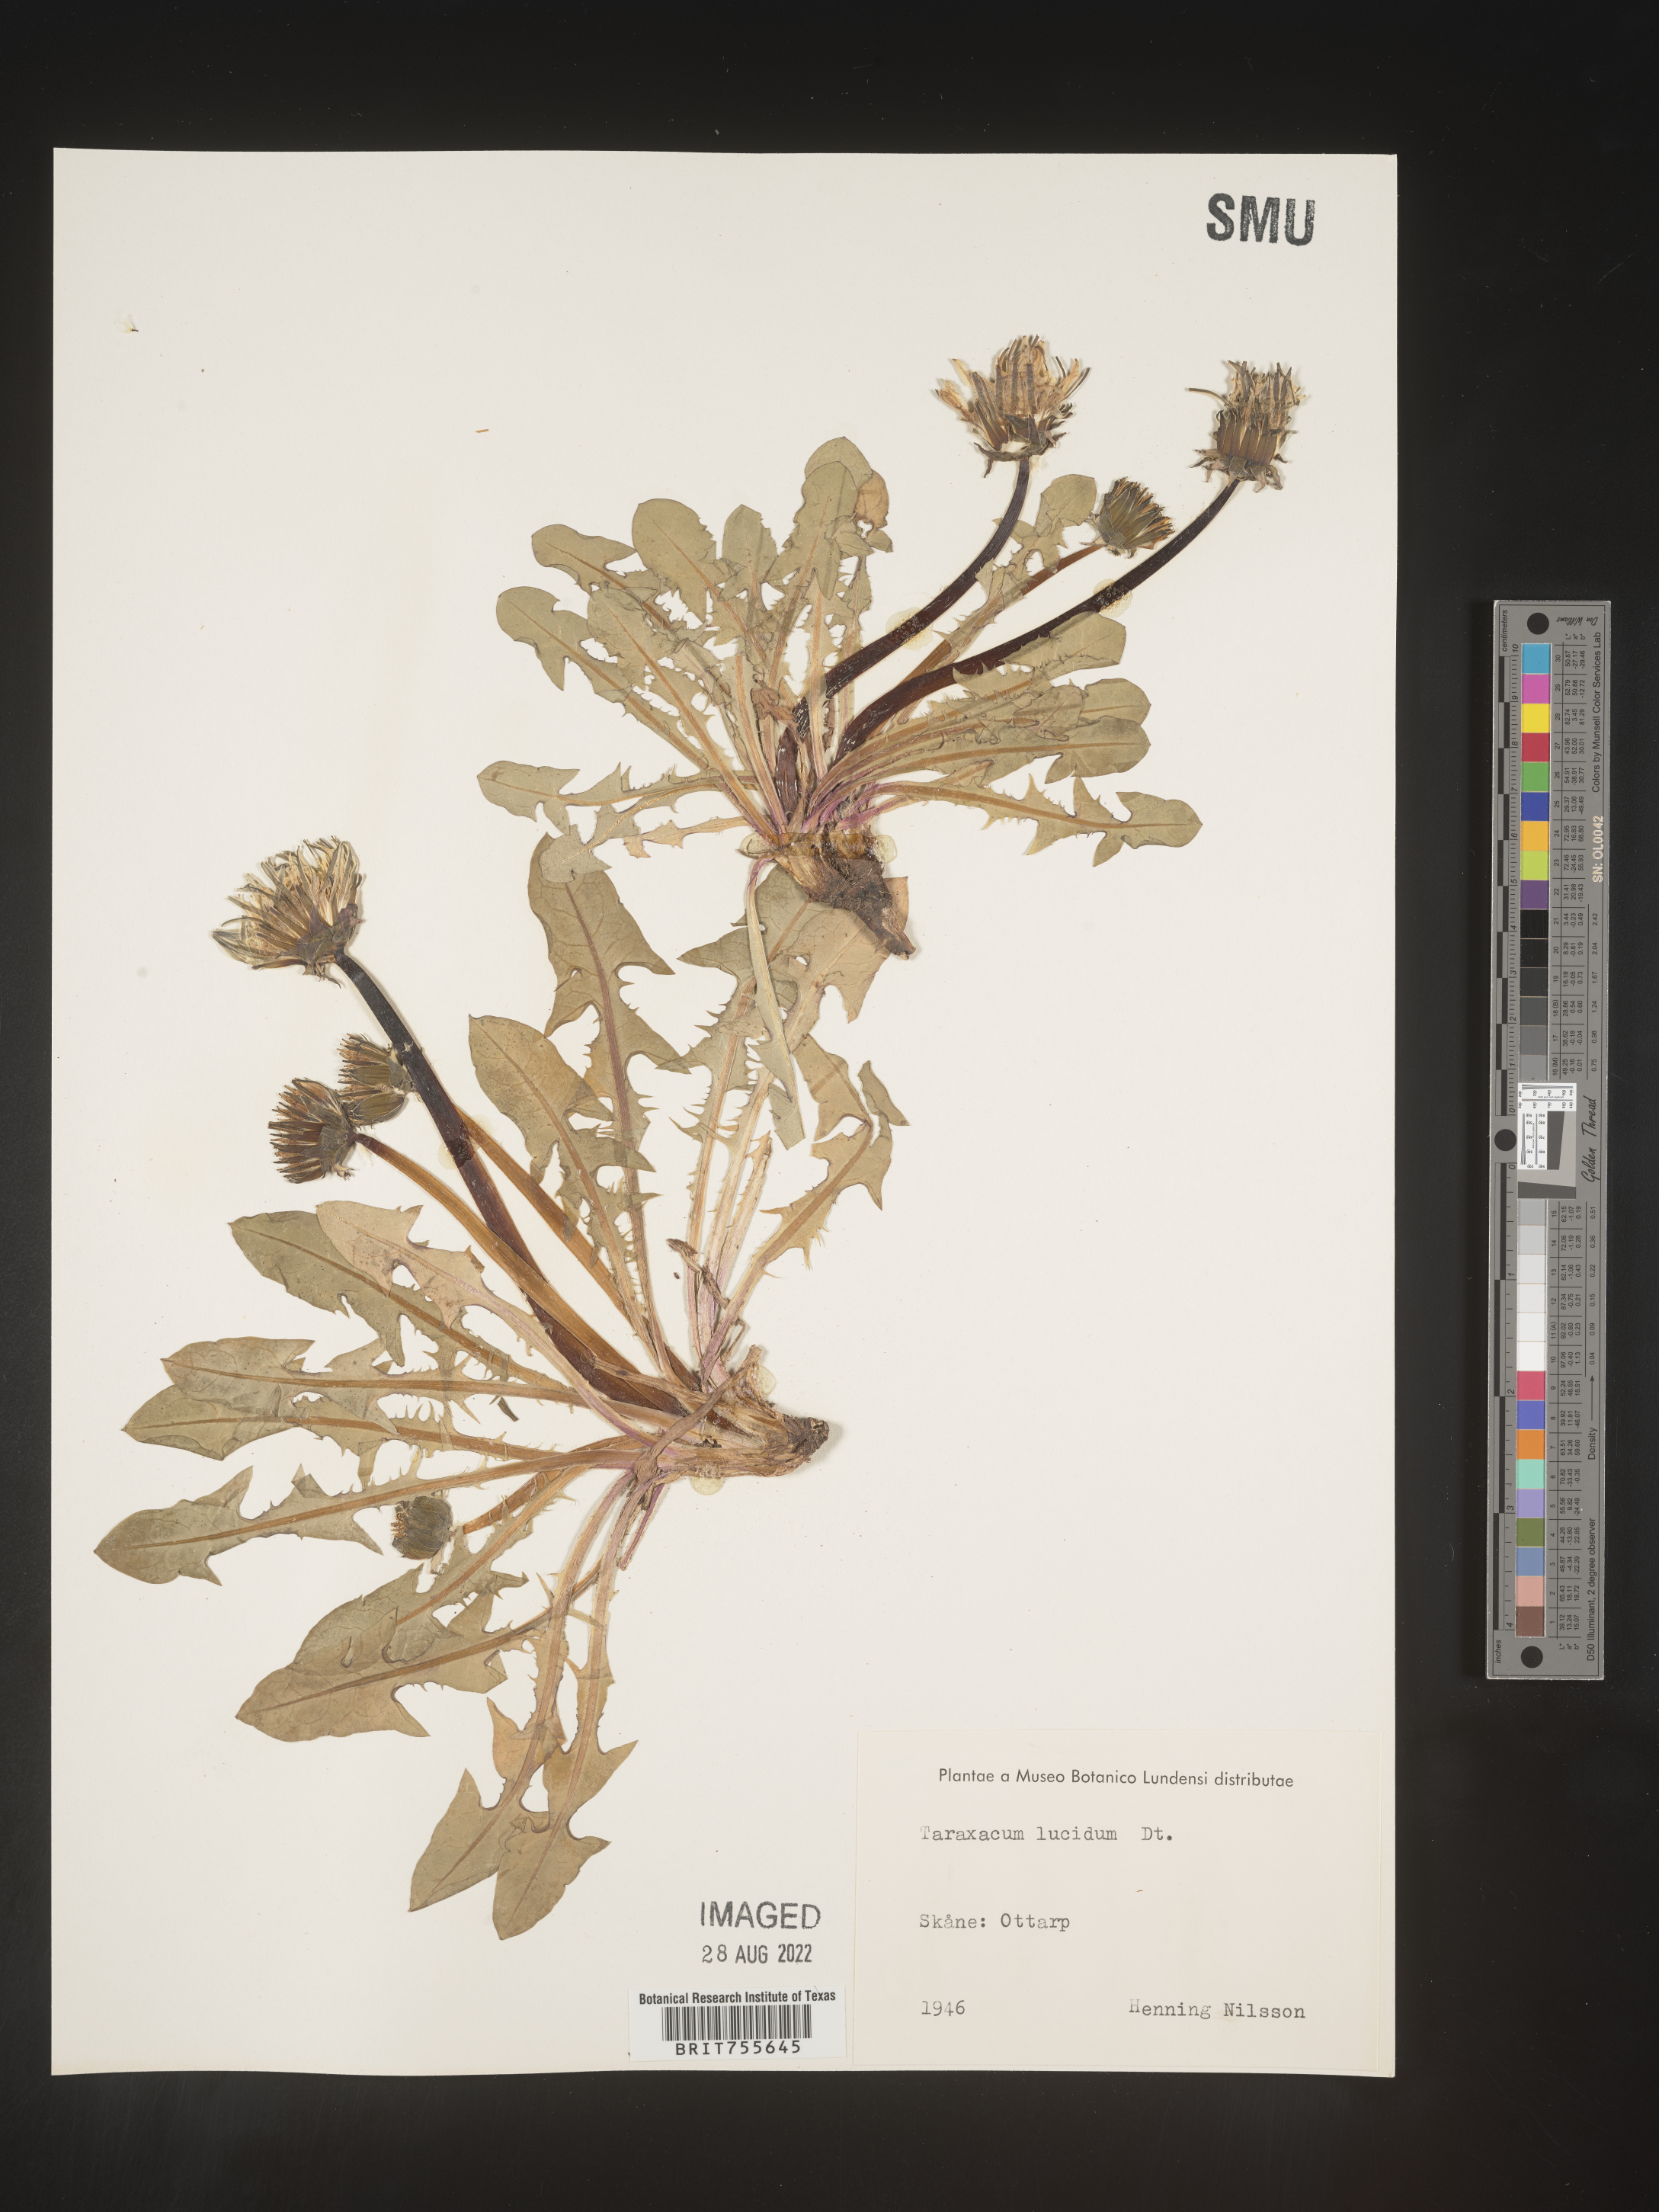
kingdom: Plantae
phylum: Tracheophyta
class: Magnoliopsida
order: Asterales
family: Asteraceae
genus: Taraxacum
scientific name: Taraxacum
